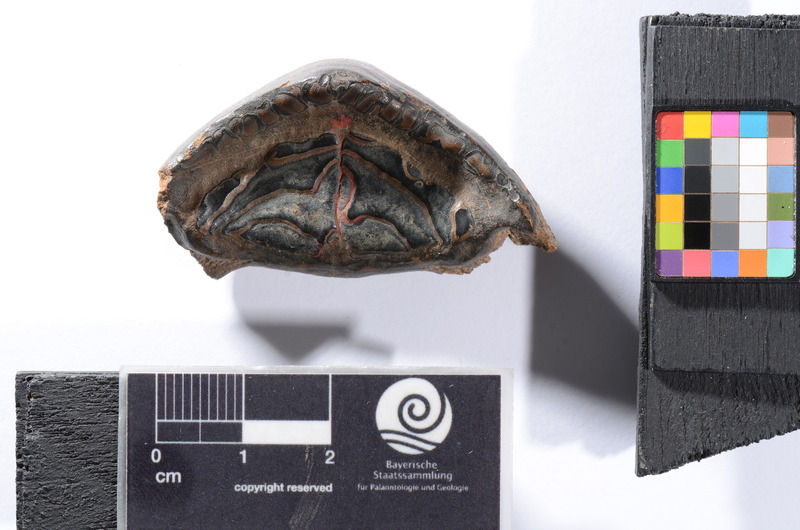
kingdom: Animalia
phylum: Chordata
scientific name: Chordata
